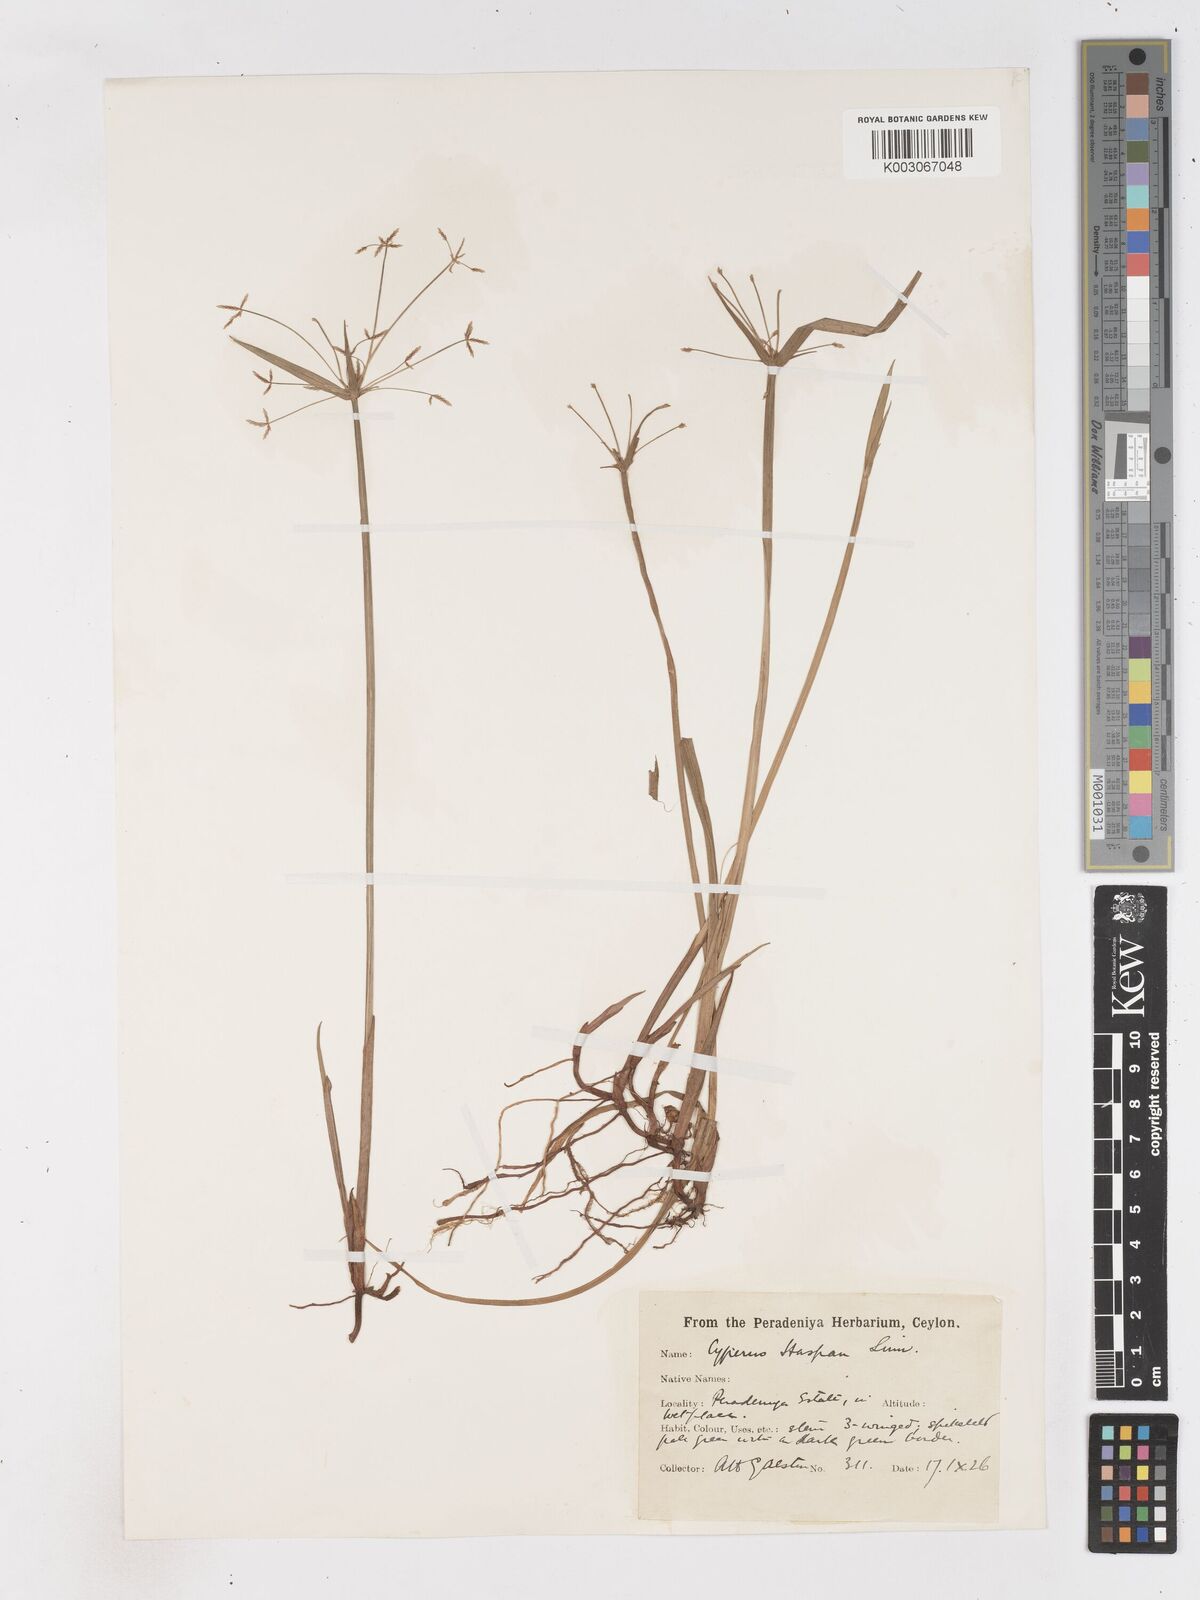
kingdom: Plantae
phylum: Tracheophyta
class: Liliopsida
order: Poales
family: Cyperaceae
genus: Cyperus
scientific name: Cyperus haspan
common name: Haspan flatsedge
